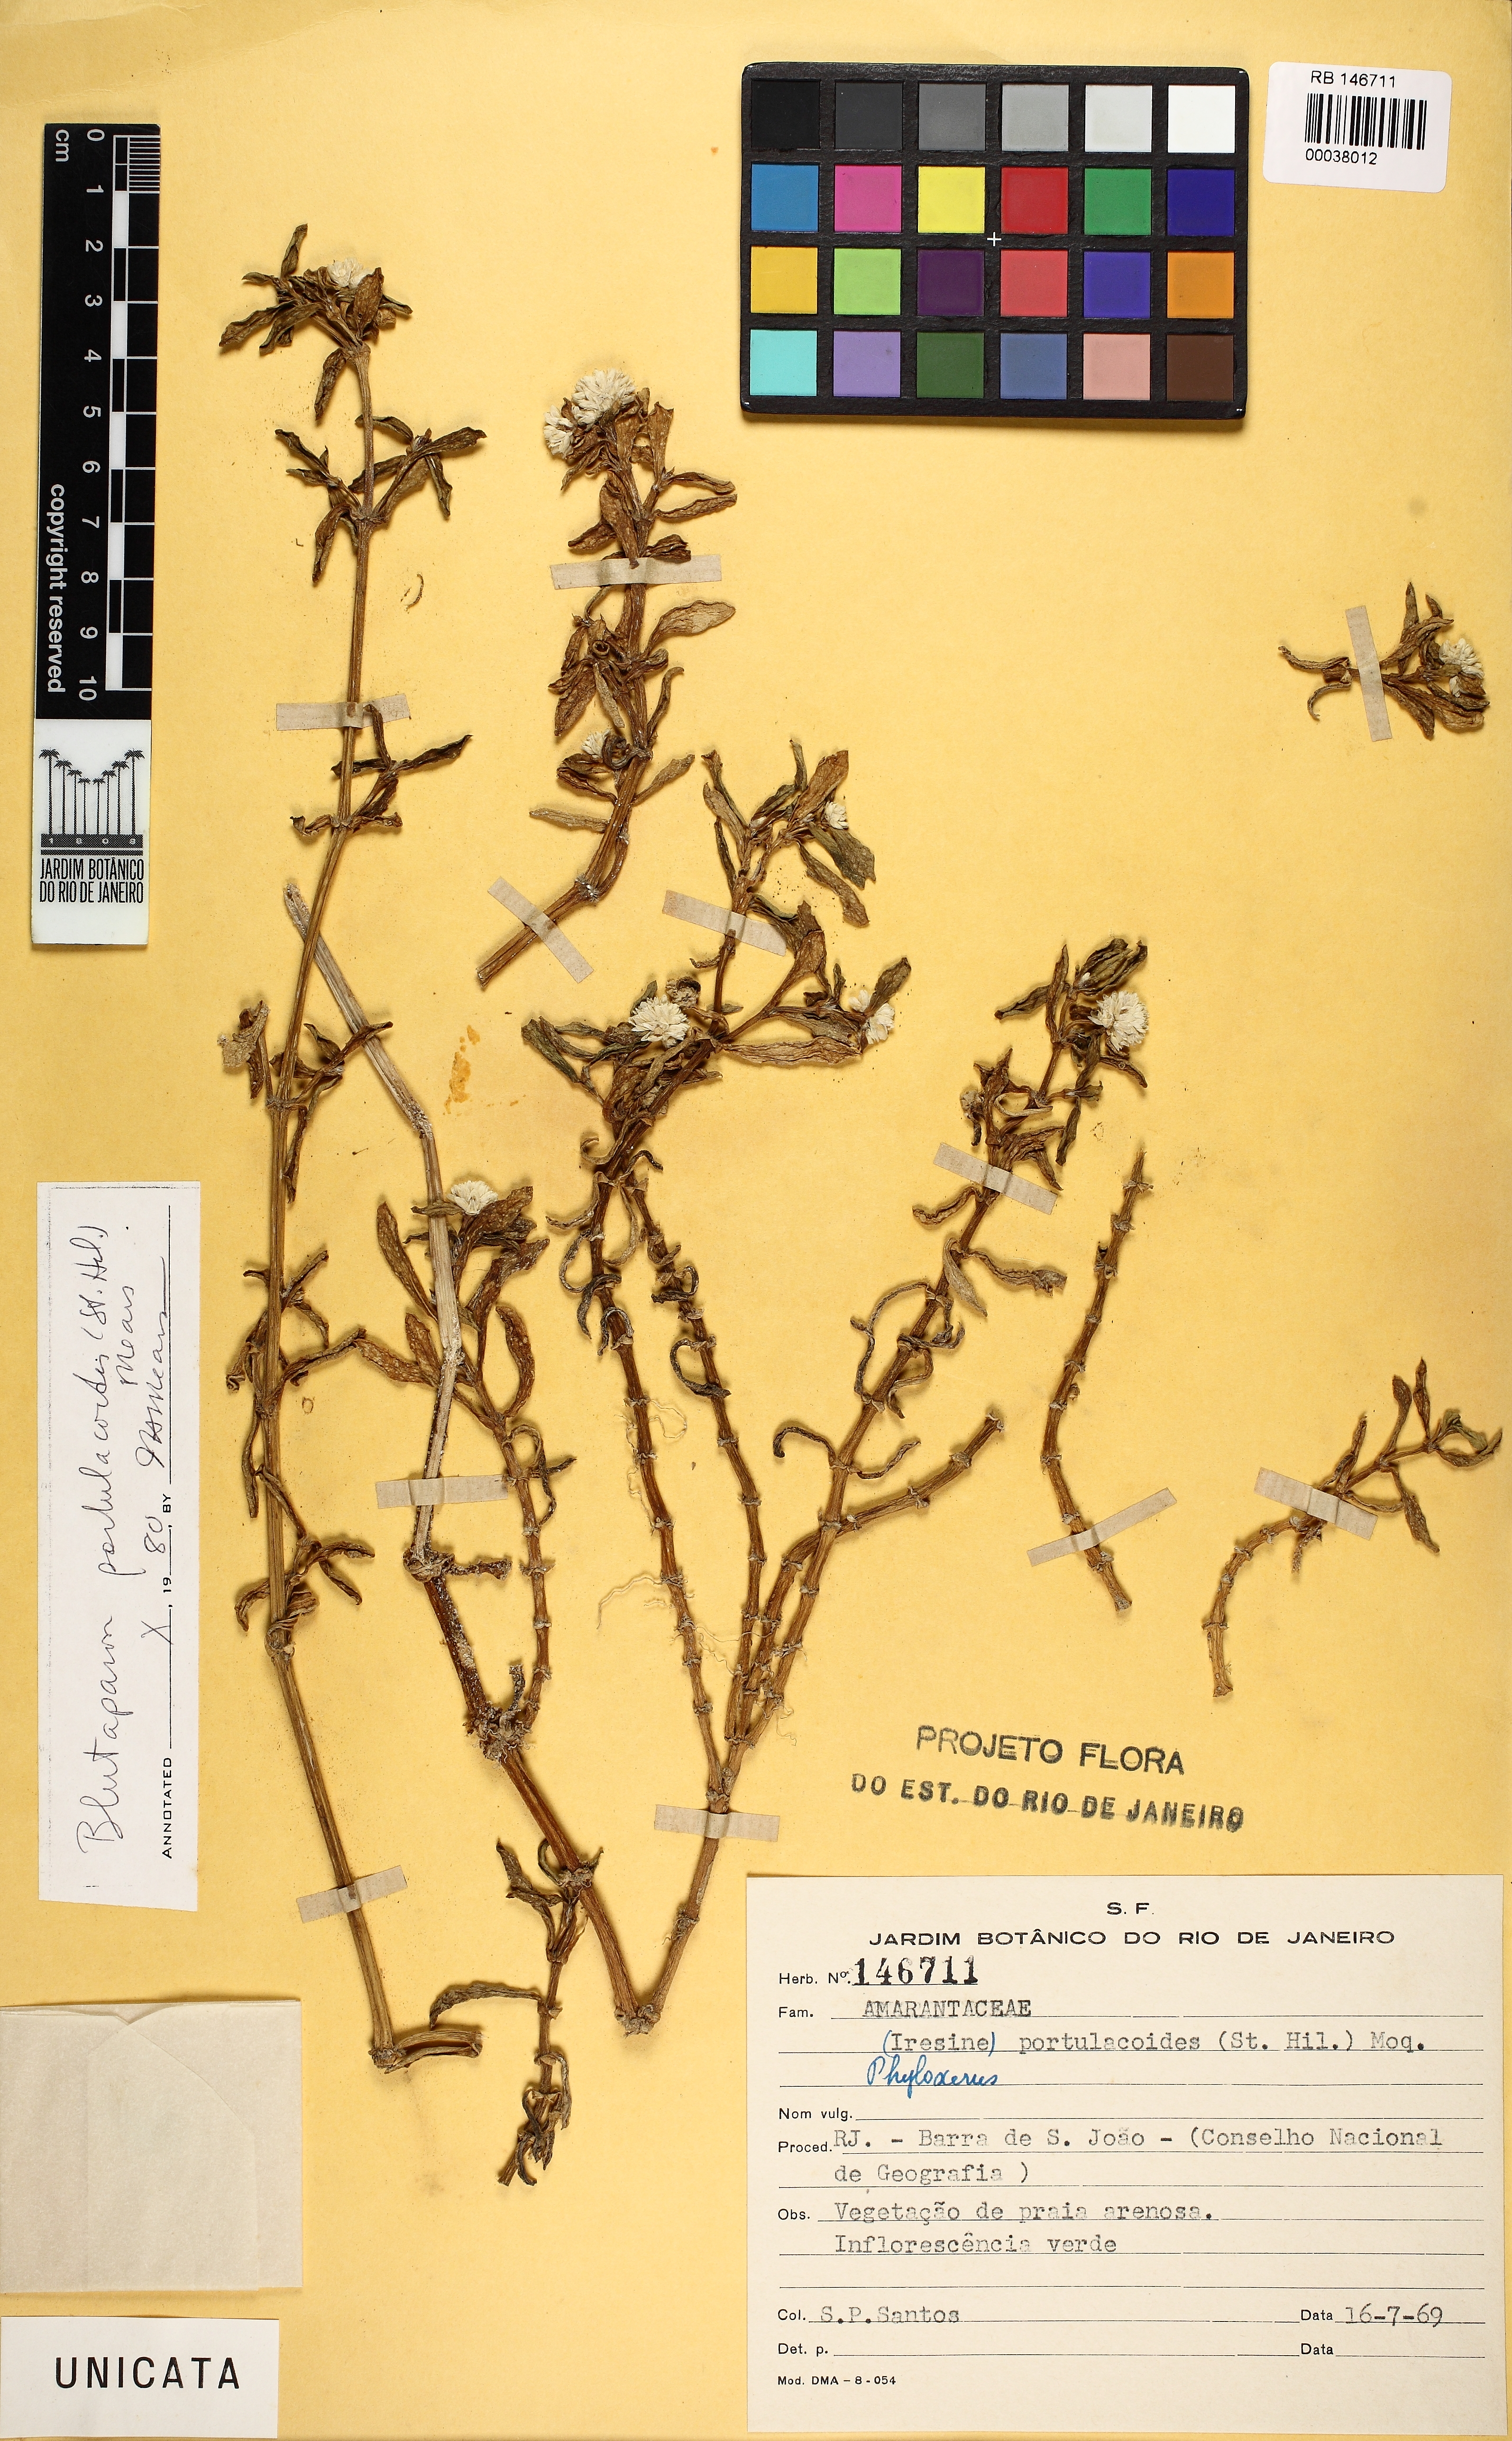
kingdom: Plantae
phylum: Tracheophyta
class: Magnoliopsida
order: Caryophyllales
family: Amaranthaceae
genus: Gomphrena
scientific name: Gomphrena portulacoides
